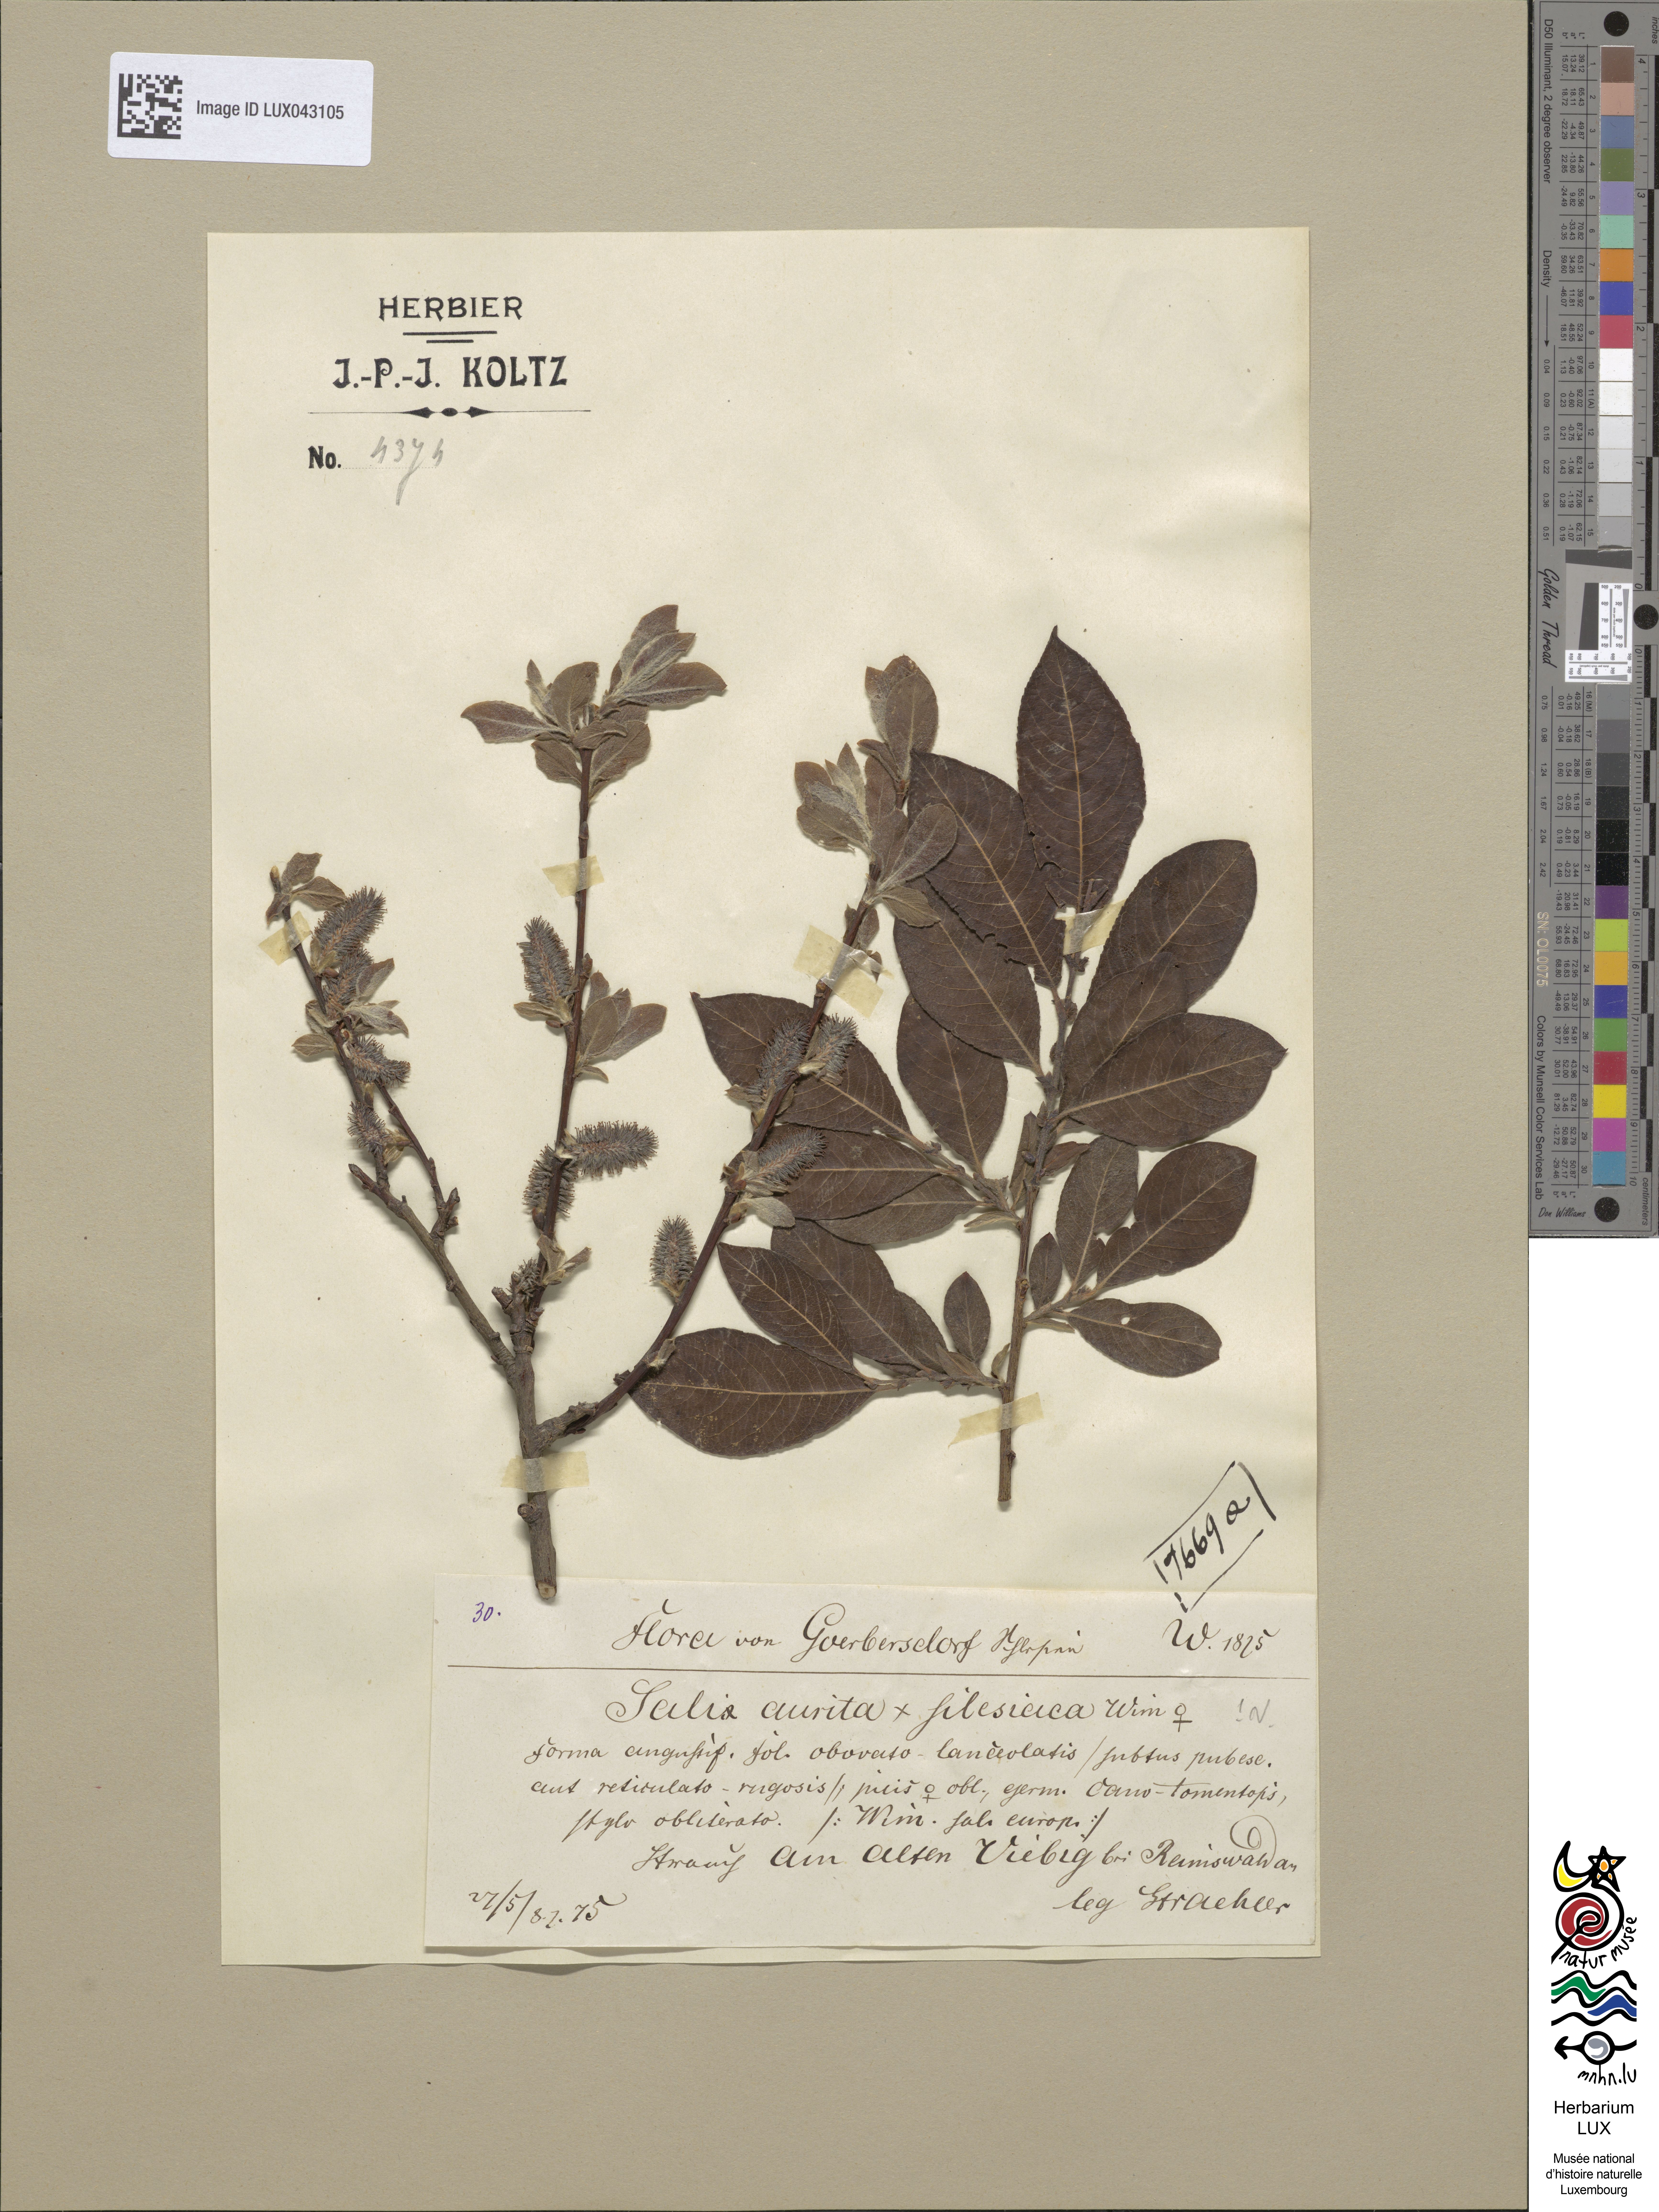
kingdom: Plantae
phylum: Tracheophyta
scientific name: Tracheophyta
